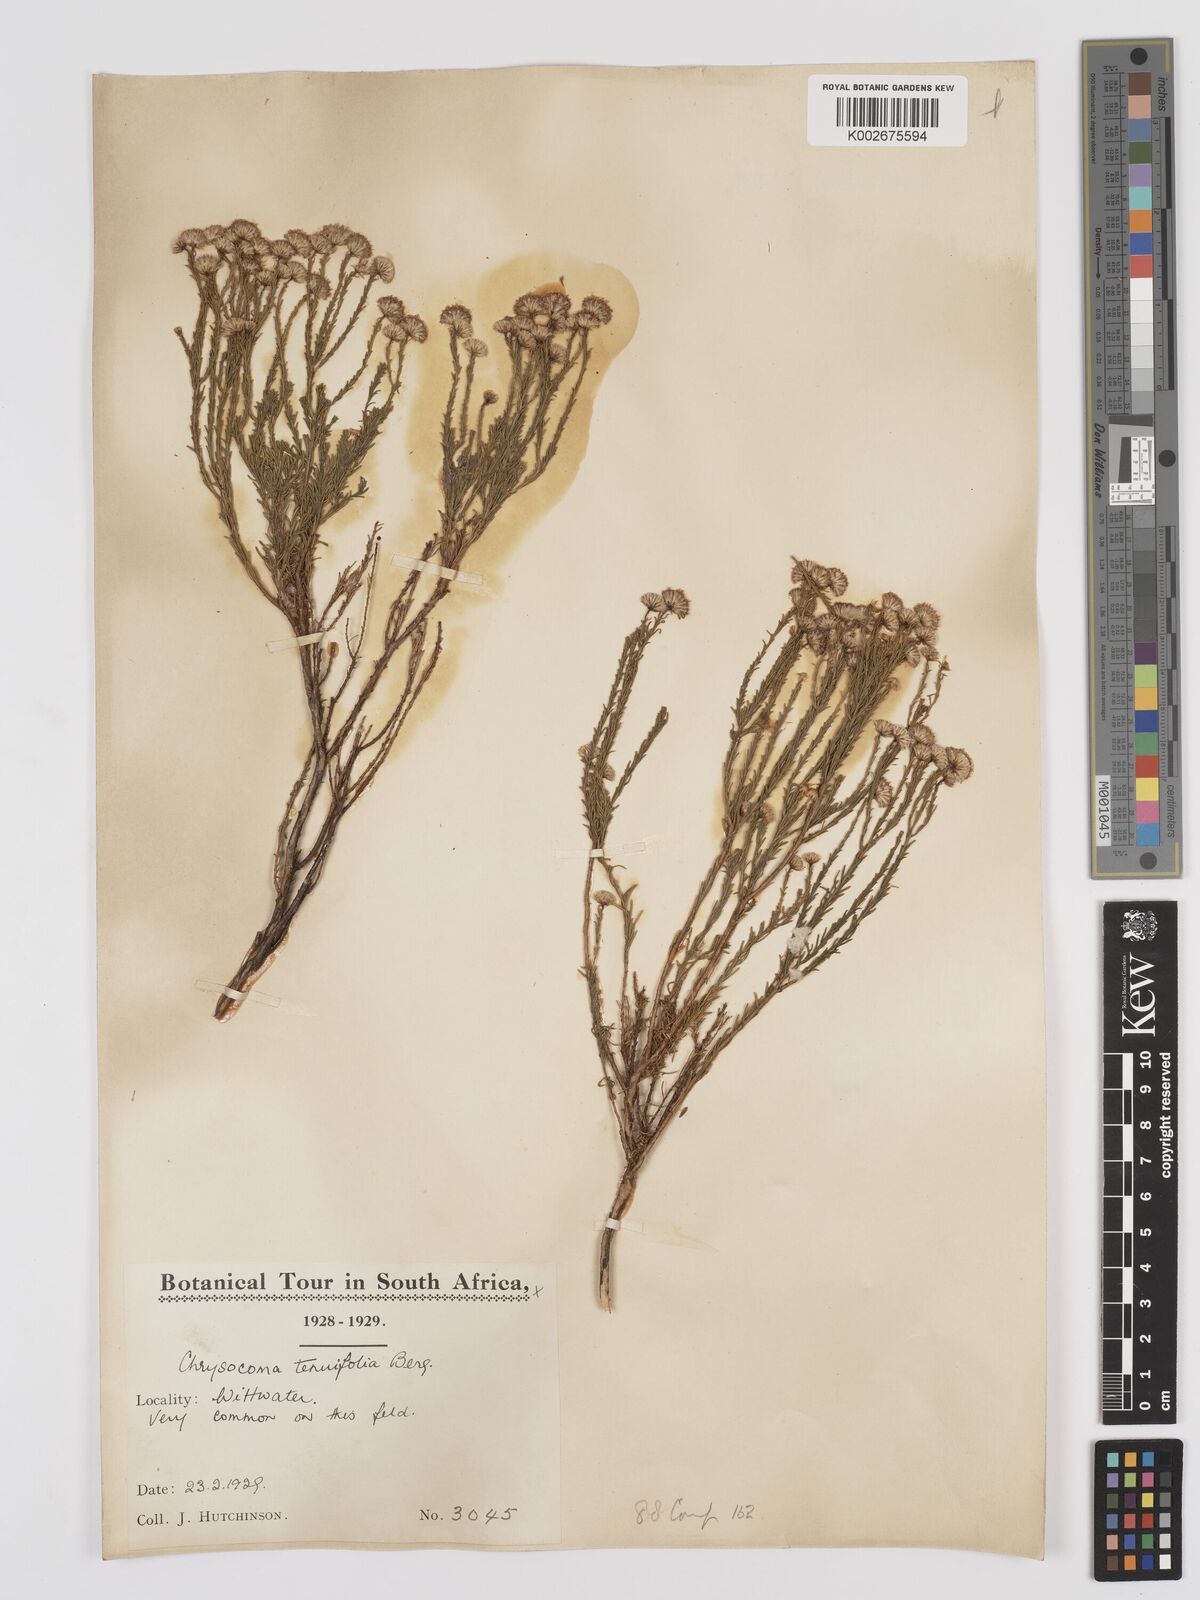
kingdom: Plantae
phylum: Tracheophyta
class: Magnoliopsida
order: Asterales
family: Asteraceae
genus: Chrysocoma
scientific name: Chrysocoma ciliata
